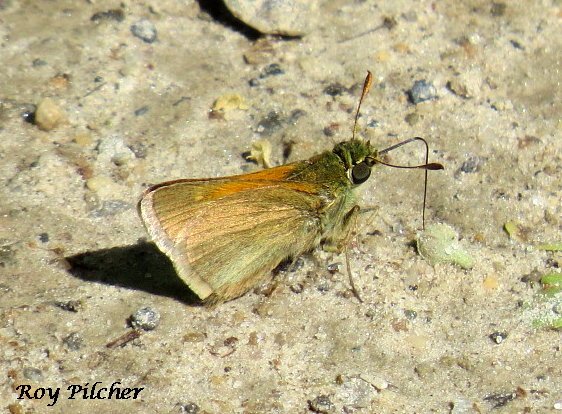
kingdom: Animalia
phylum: Arthropoda
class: Insecta
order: Lepidoptera
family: Hesperiidae
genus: Polites
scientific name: Polites themistocles
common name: Tawny-edged Skipper
